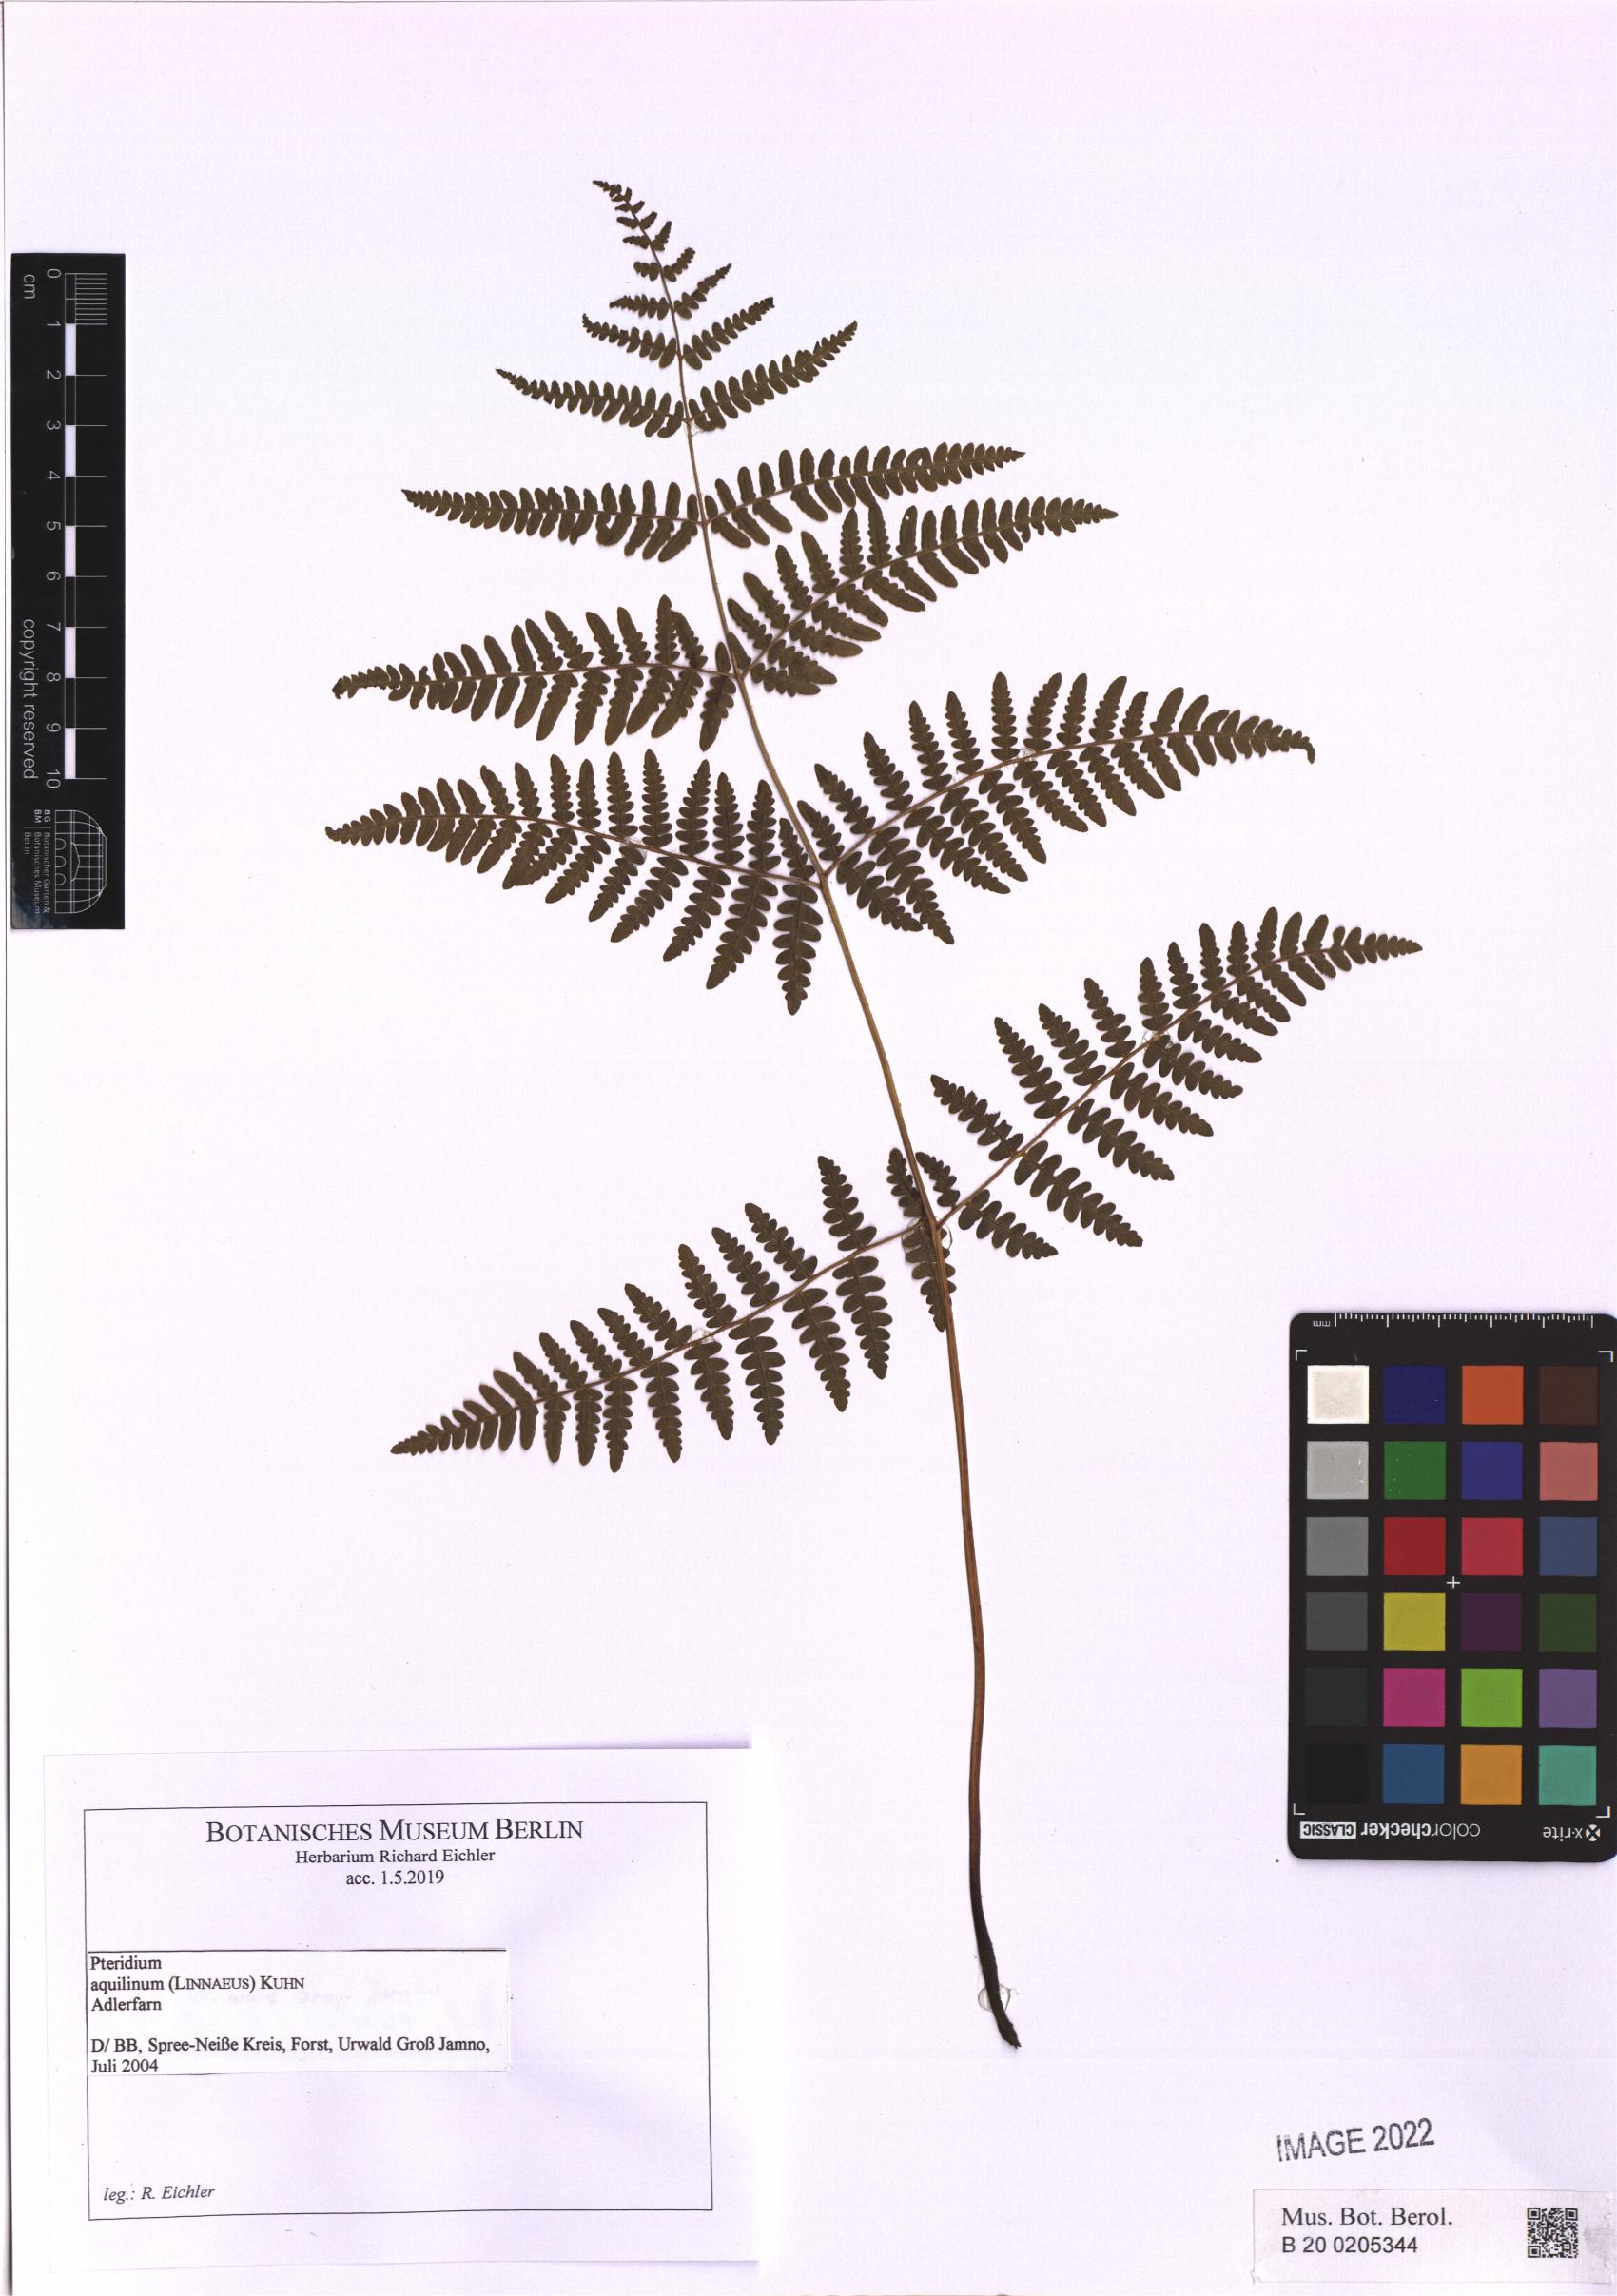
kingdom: Plantae
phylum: Tracheophyta
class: Polypodiopsida
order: Polypodiales
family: Dennstaedtiaceae
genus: Pteridium
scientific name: Pteridium aquilinum
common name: Bracken
